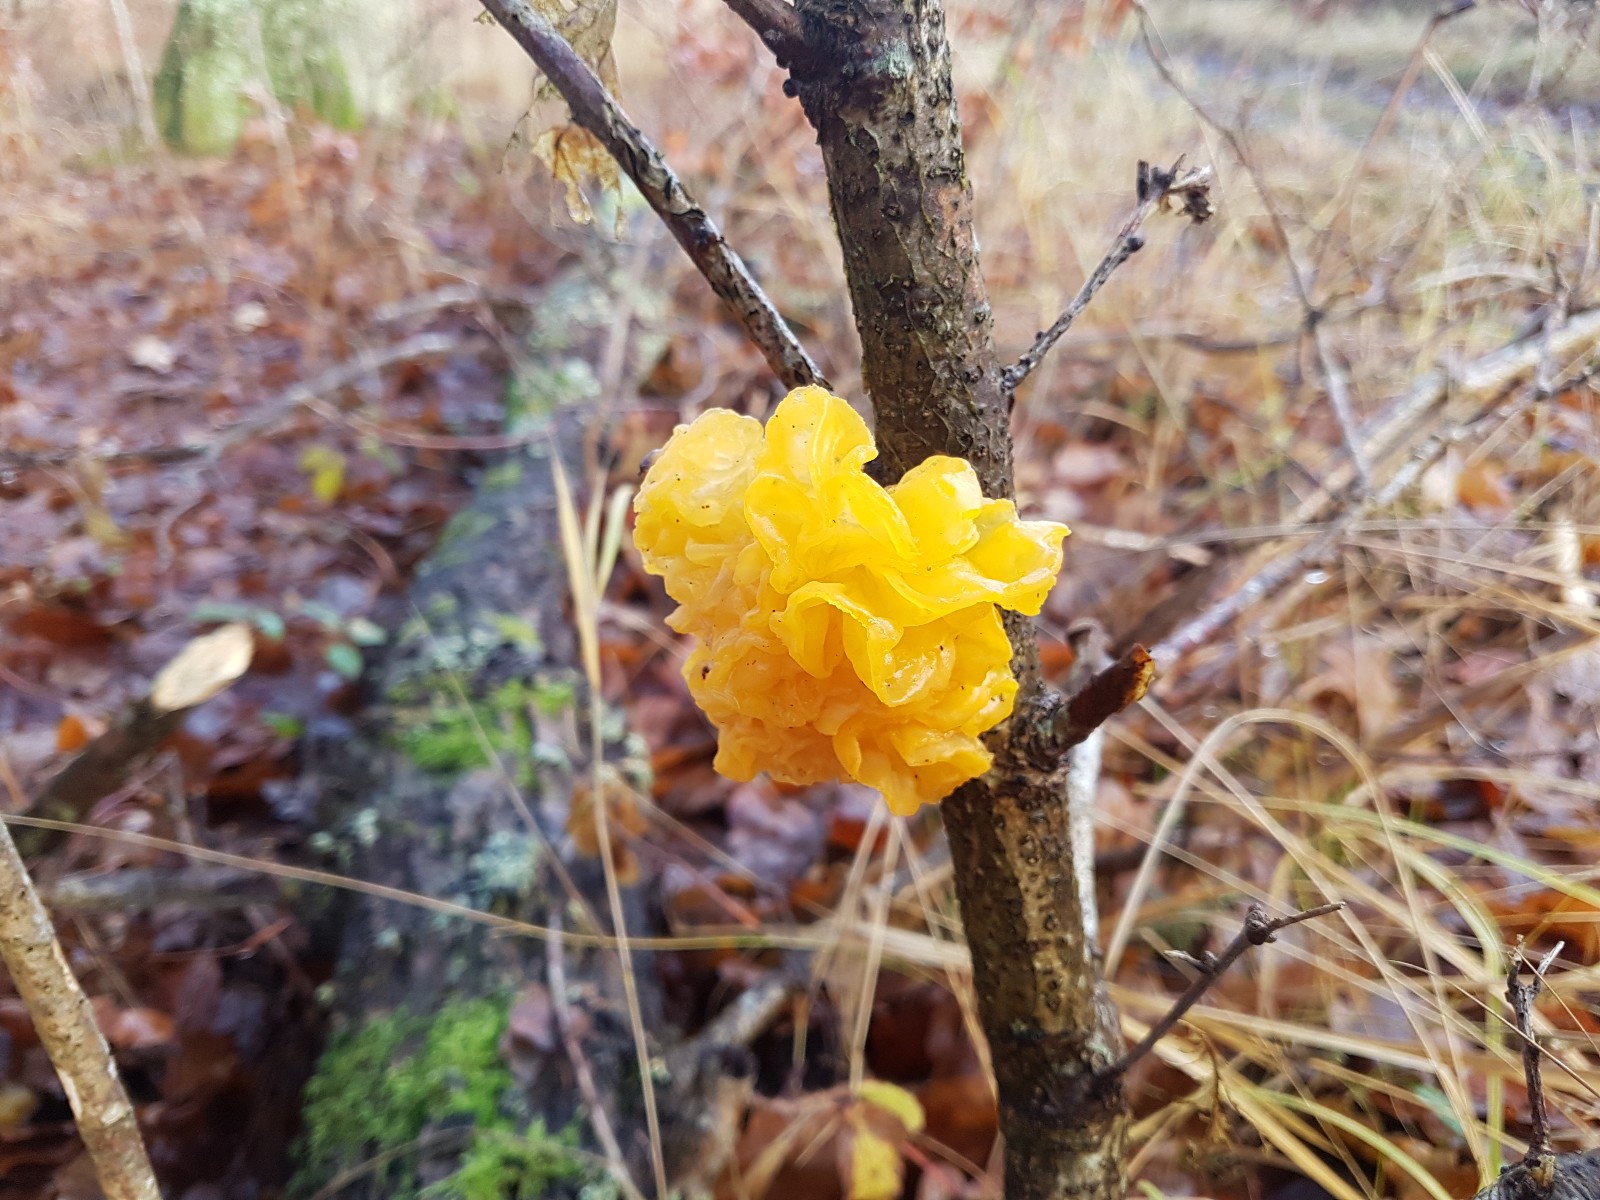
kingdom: Fungi
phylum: Basidiomycota
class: Tremellomycetes
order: Tremellales
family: Tremellaceae
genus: Tremella
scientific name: Tremella mesenterica
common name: gul bævresvamp
